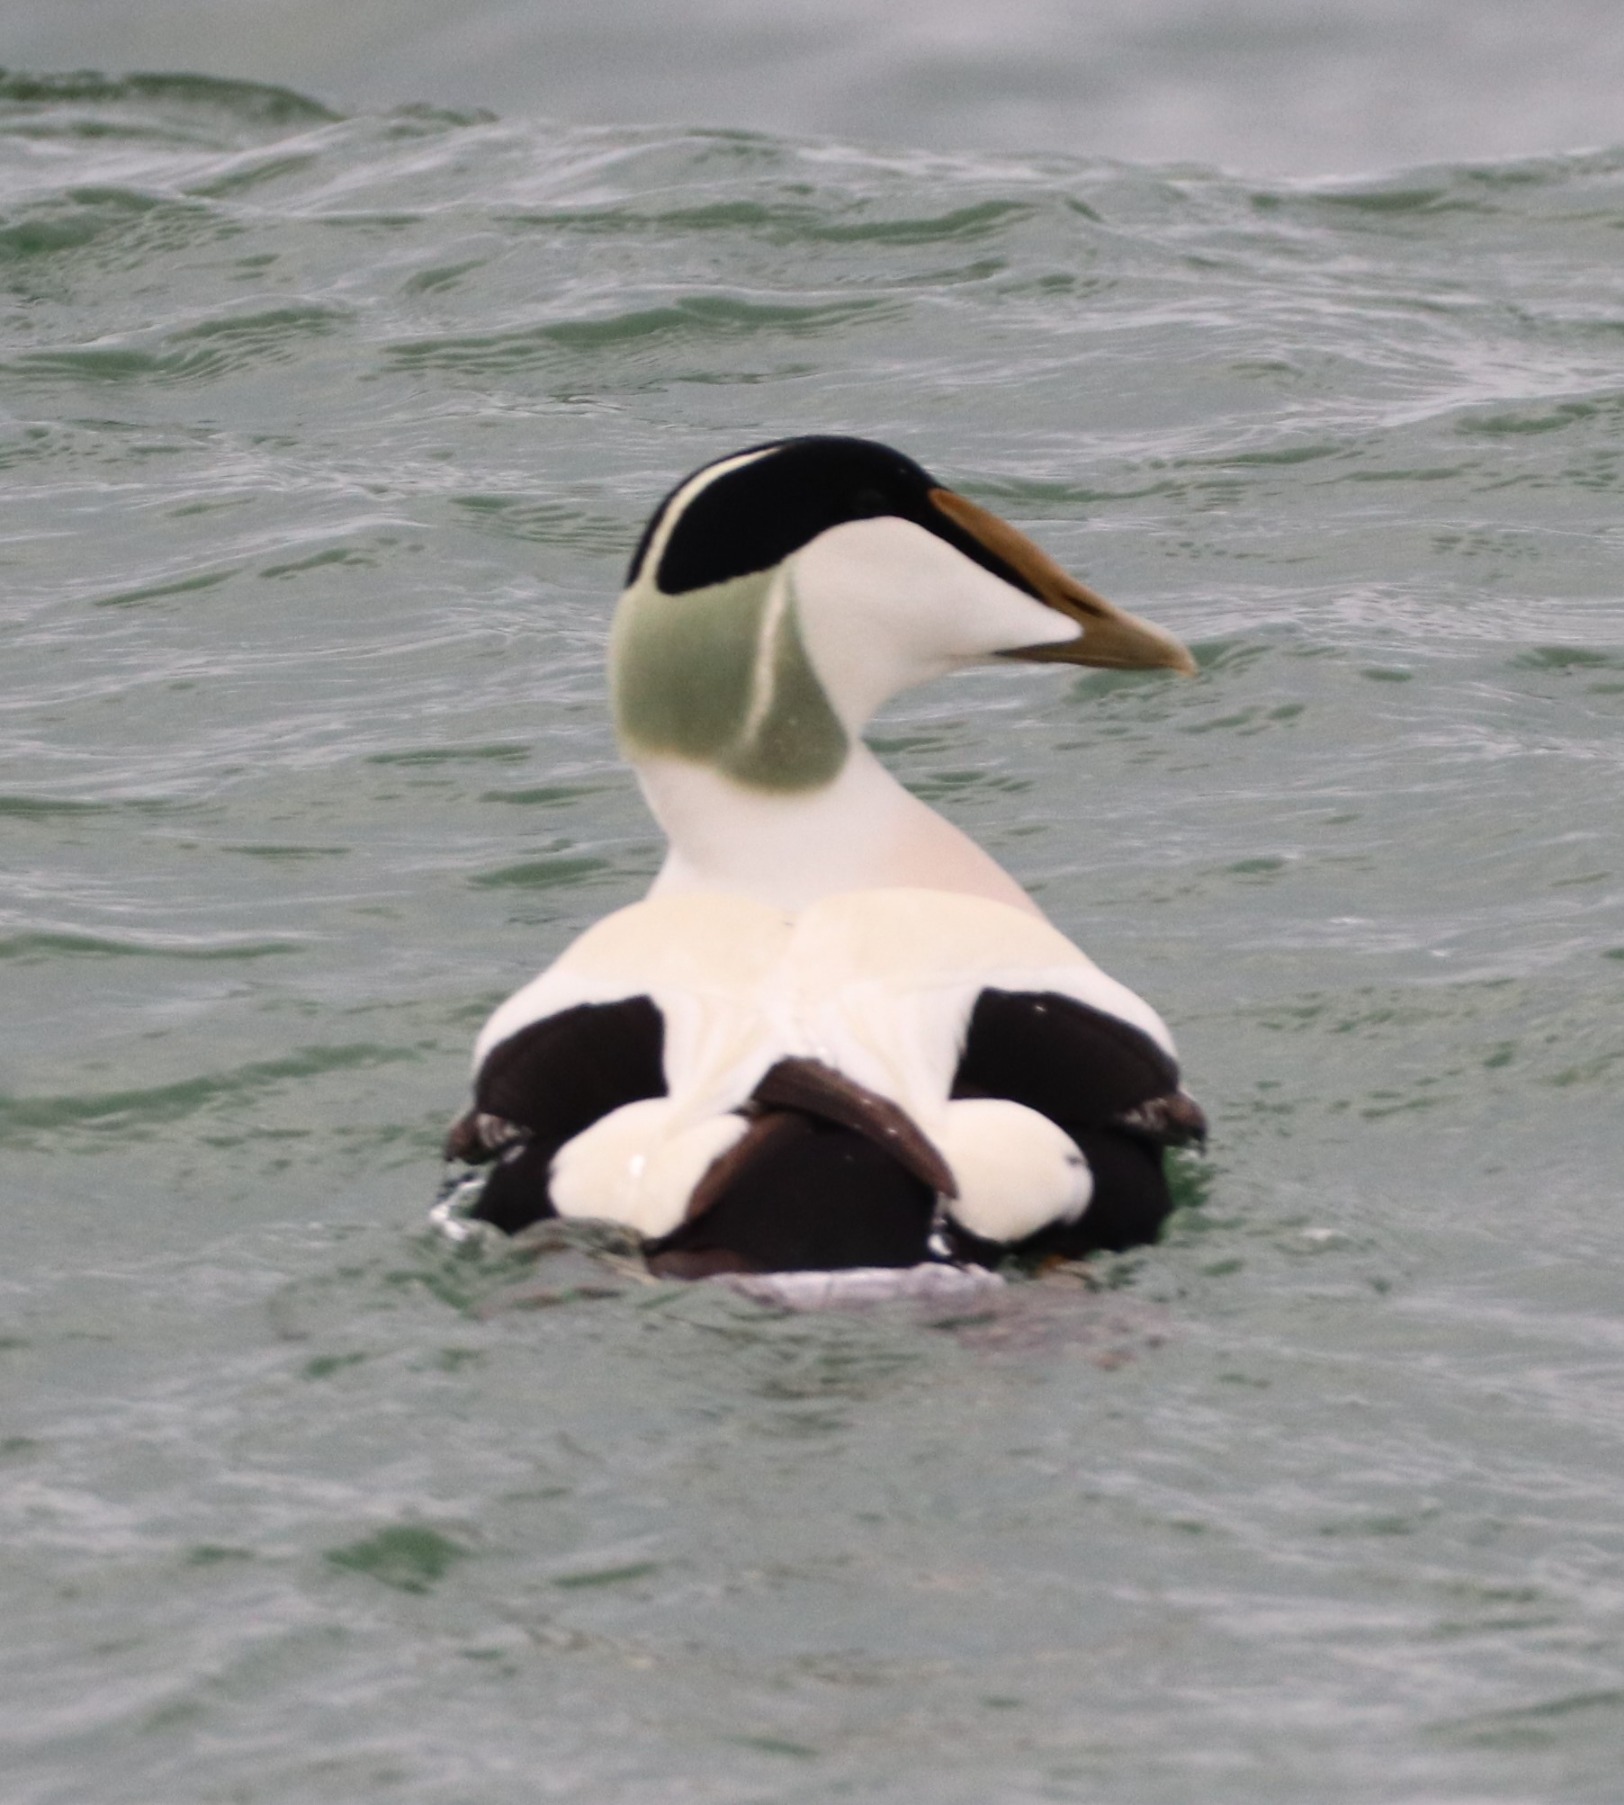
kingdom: Animalia
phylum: Chordata
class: Aves
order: Anseriformes
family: Anatidae
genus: Somateria
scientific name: Somateria mollissima
